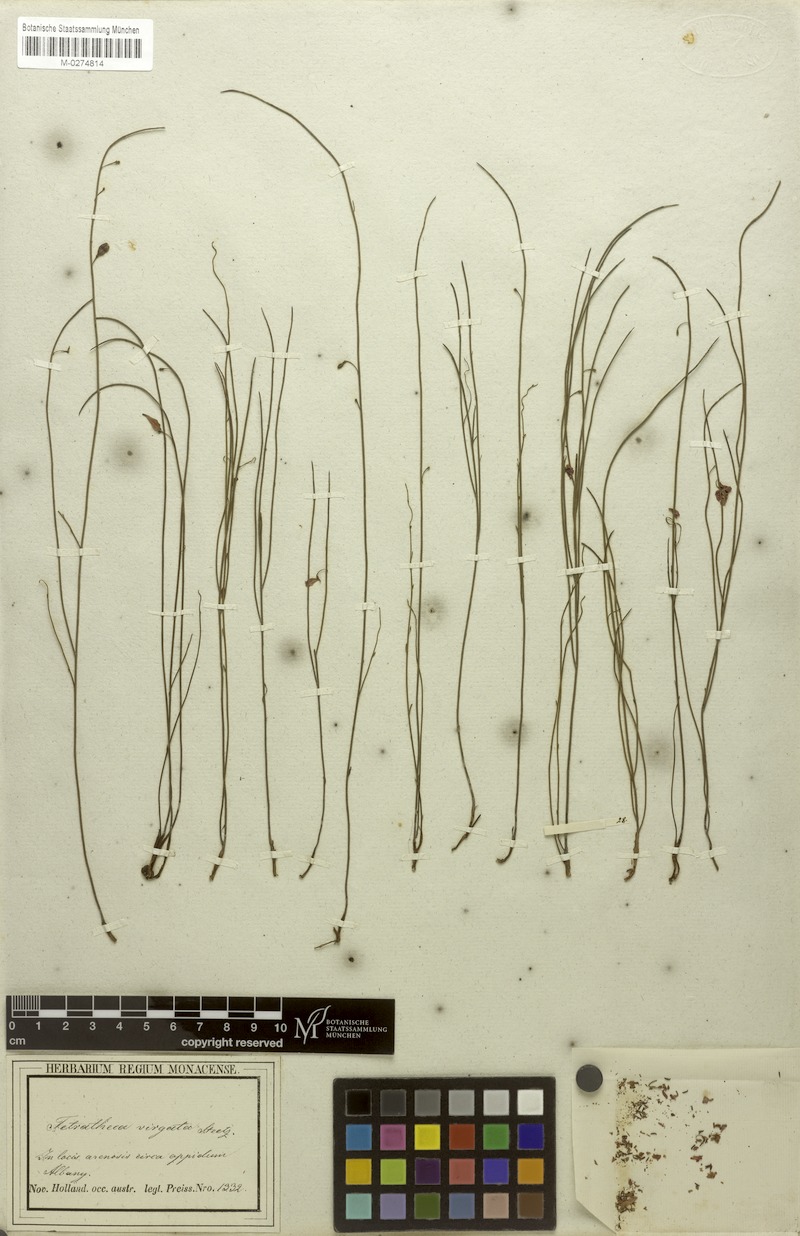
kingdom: Plantae
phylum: Tracheophyta
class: Magnoliopsida
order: Oxalidales
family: Elaeocarpaceae
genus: Tetratheca
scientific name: Tetratheca virgata
